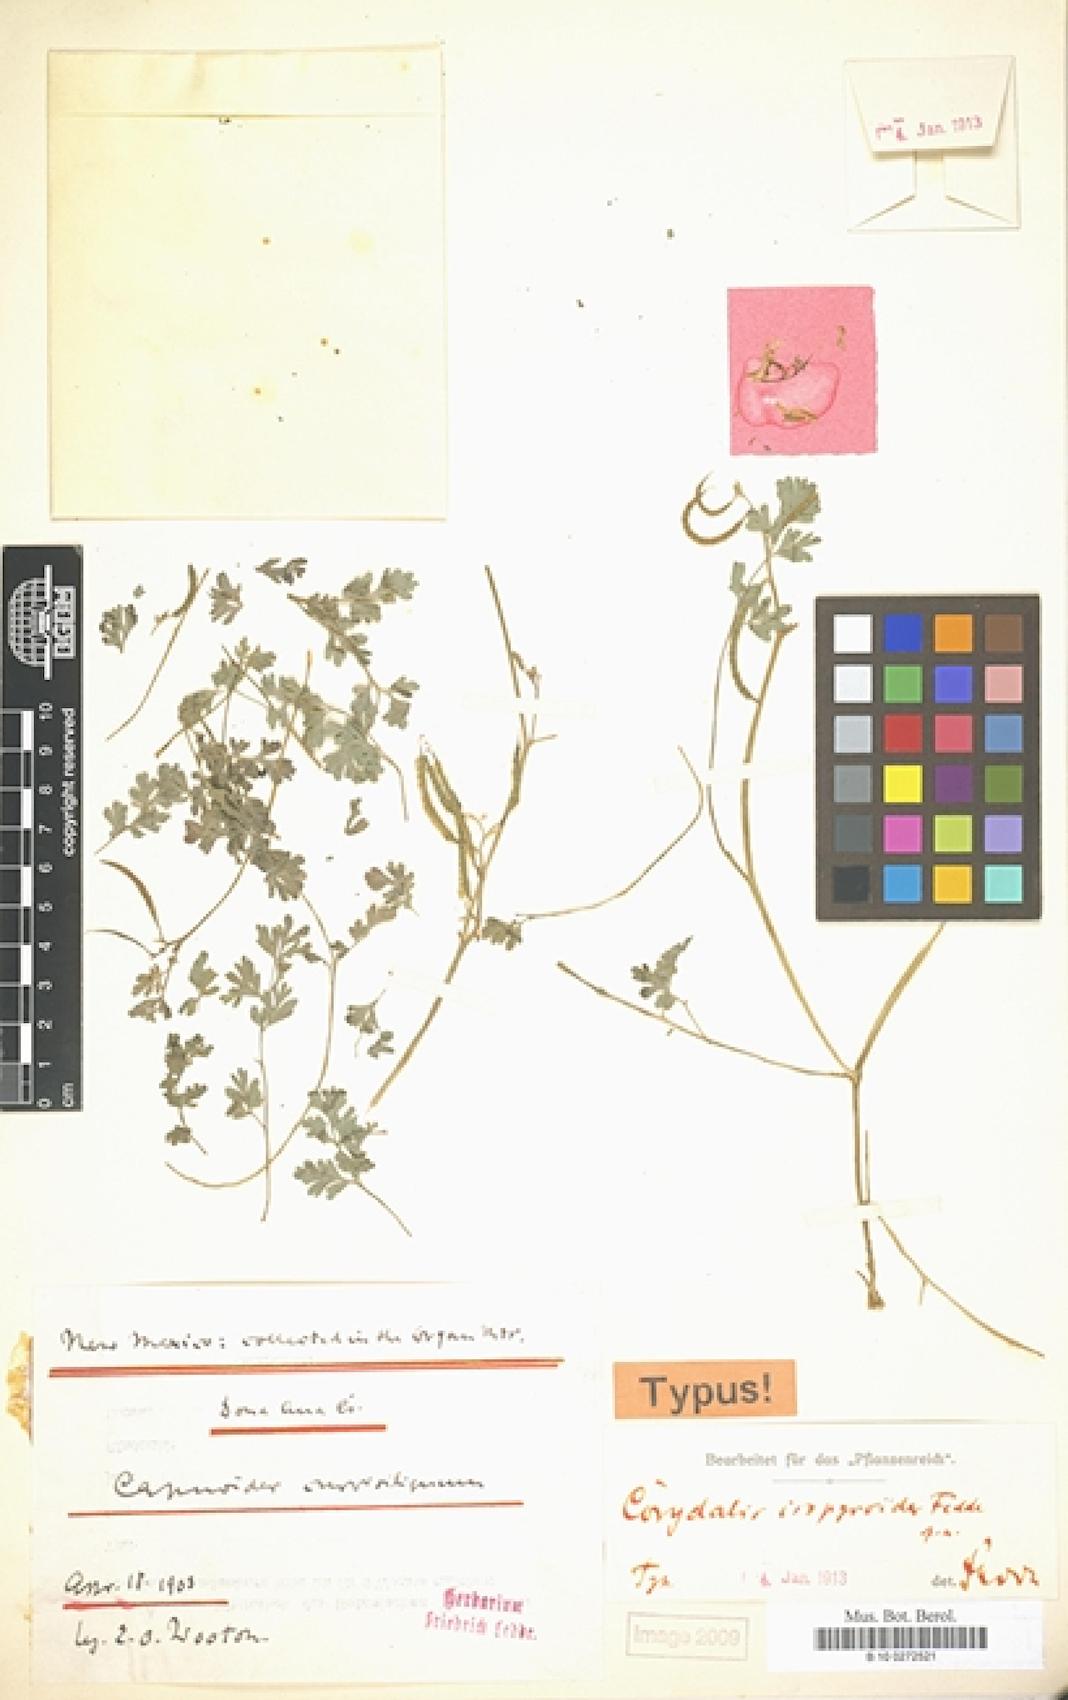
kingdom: Plantae
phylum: Tracheophyta
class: Magnoliopsida
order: Ranunculales
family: Papaveraceae
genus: Corydalis
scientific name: Corydalis aurea
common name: Golden corydalis
